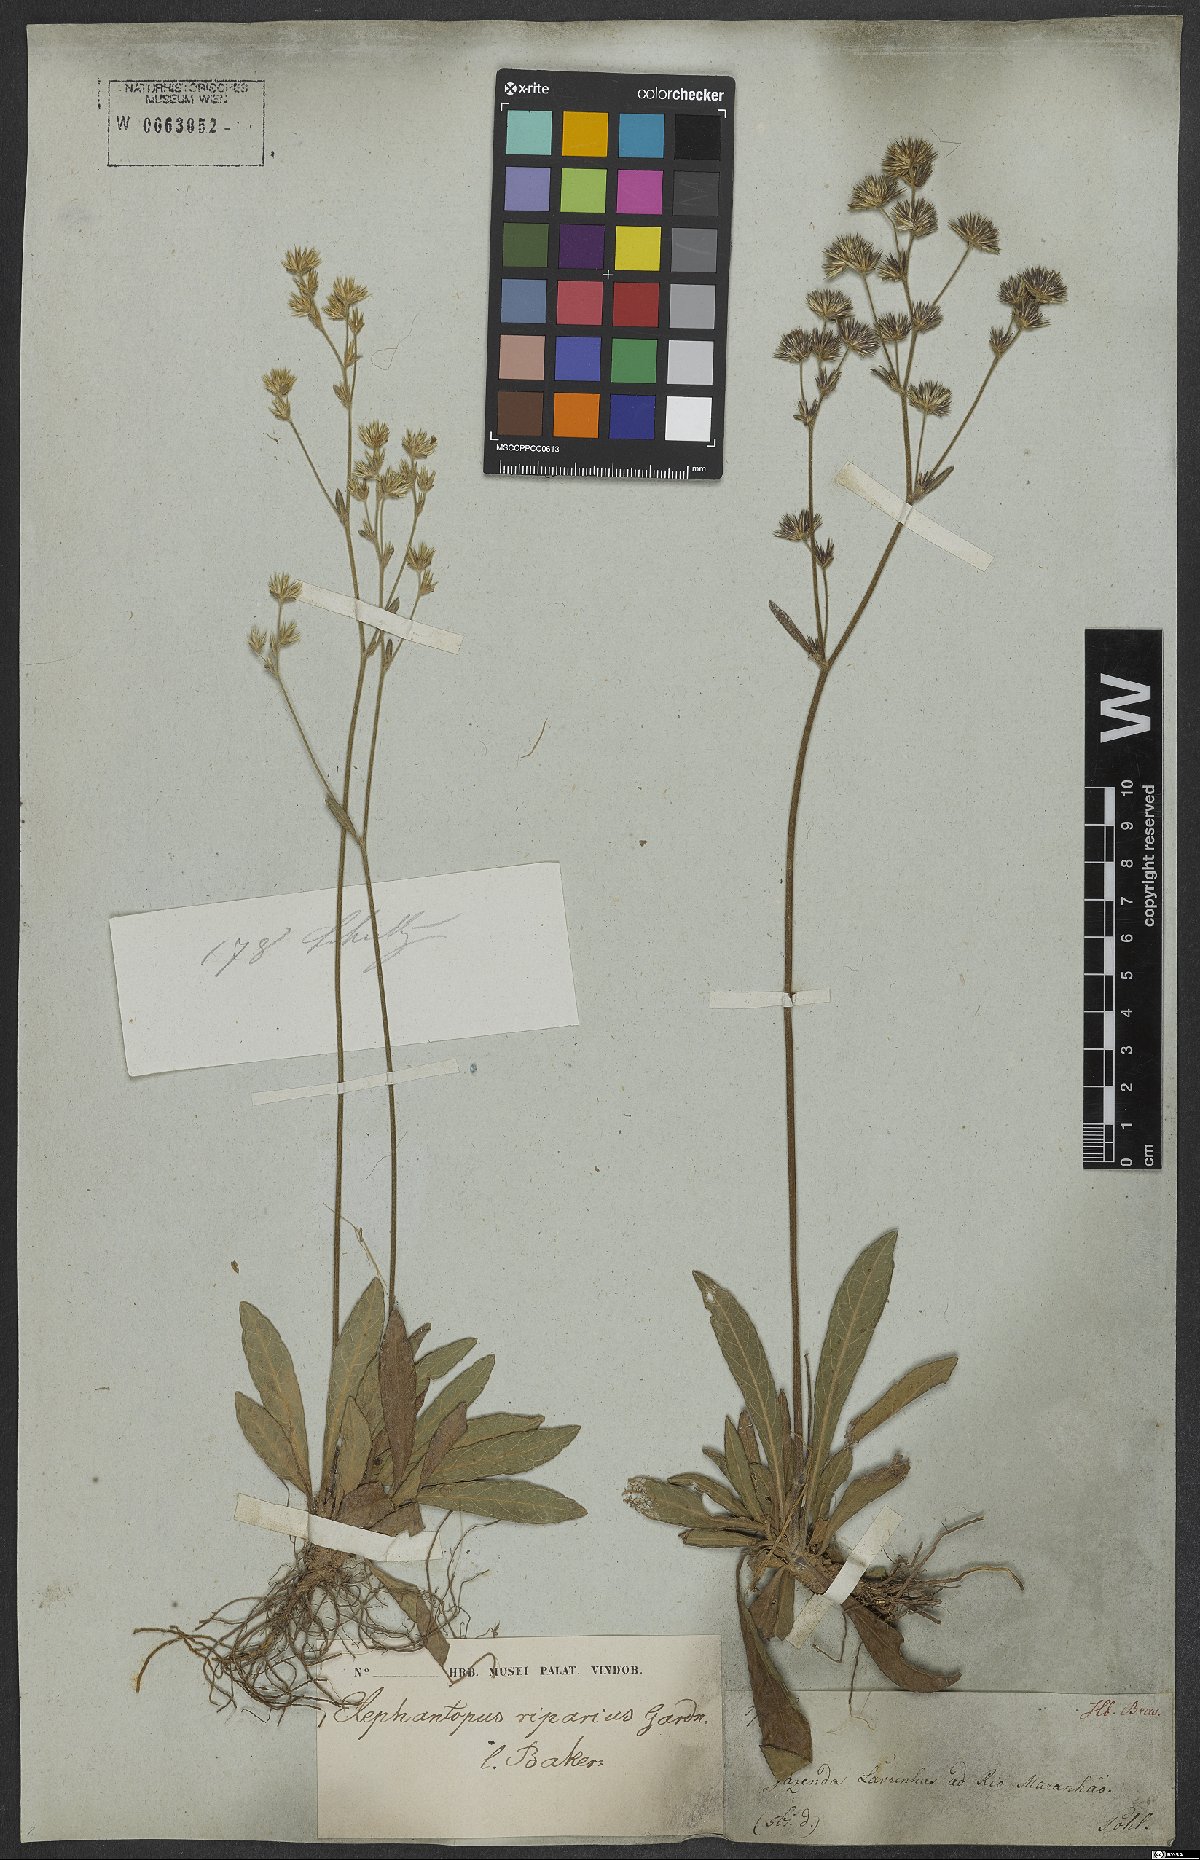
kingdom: Plantae
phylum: Tracheophyta
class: Magnoliopsida
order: Asterales
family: Asteraceae
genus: Elephantopus
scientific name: Elephantopus riparius
